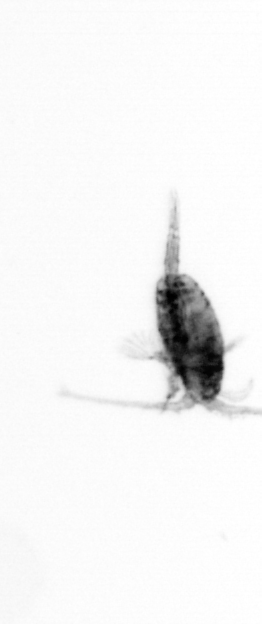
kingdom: Animalia
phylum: Arthropoda
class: Copepoda
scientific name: Copepoda
